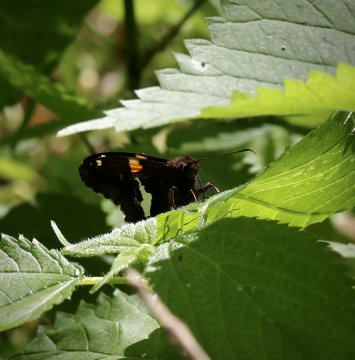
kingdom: Animalia
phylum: Arthropoda
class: Insecta
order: Lepidoptera
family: Hesperiidae
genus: Epargyreus
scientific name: Epargyreus clarus
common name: Silver-spotted Skipper
